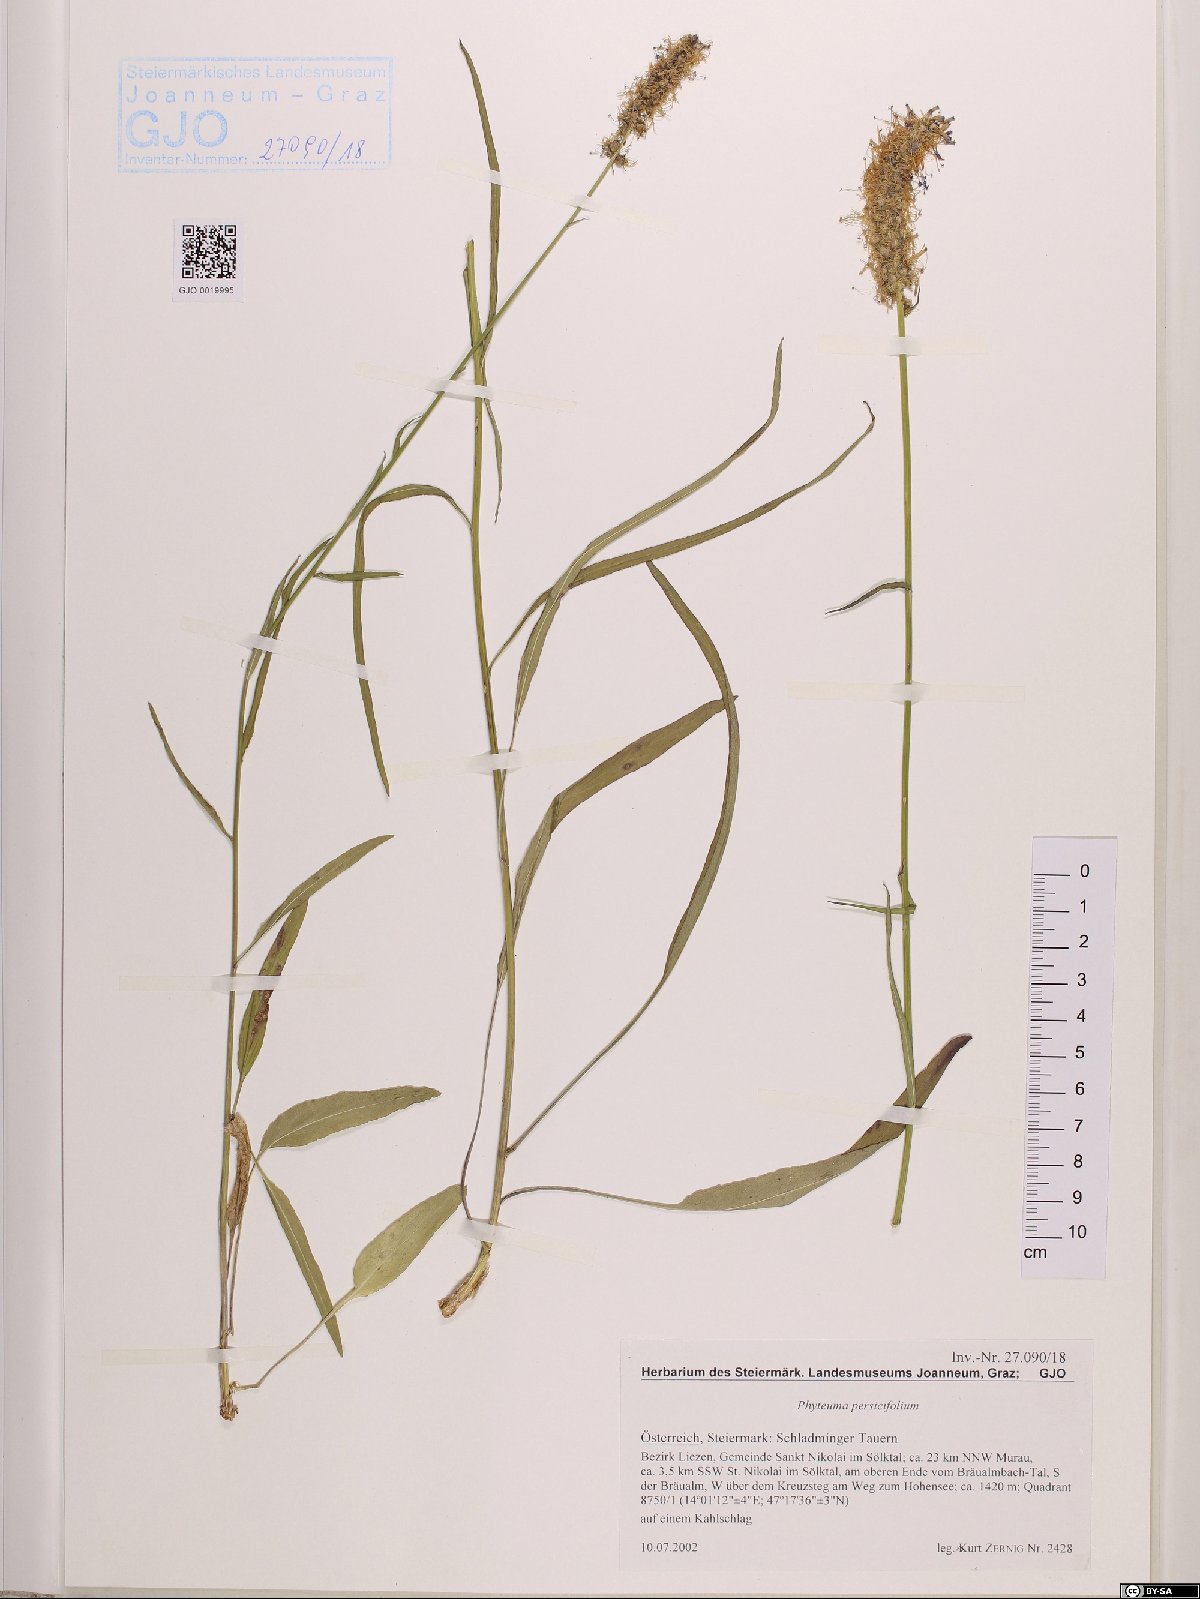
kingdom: Plantae
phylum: Tracheophyta
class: Magnoliopsida
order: Asterales
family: Campanulaceae
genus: Phyteuma
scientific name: Phyteuma persicifolium
